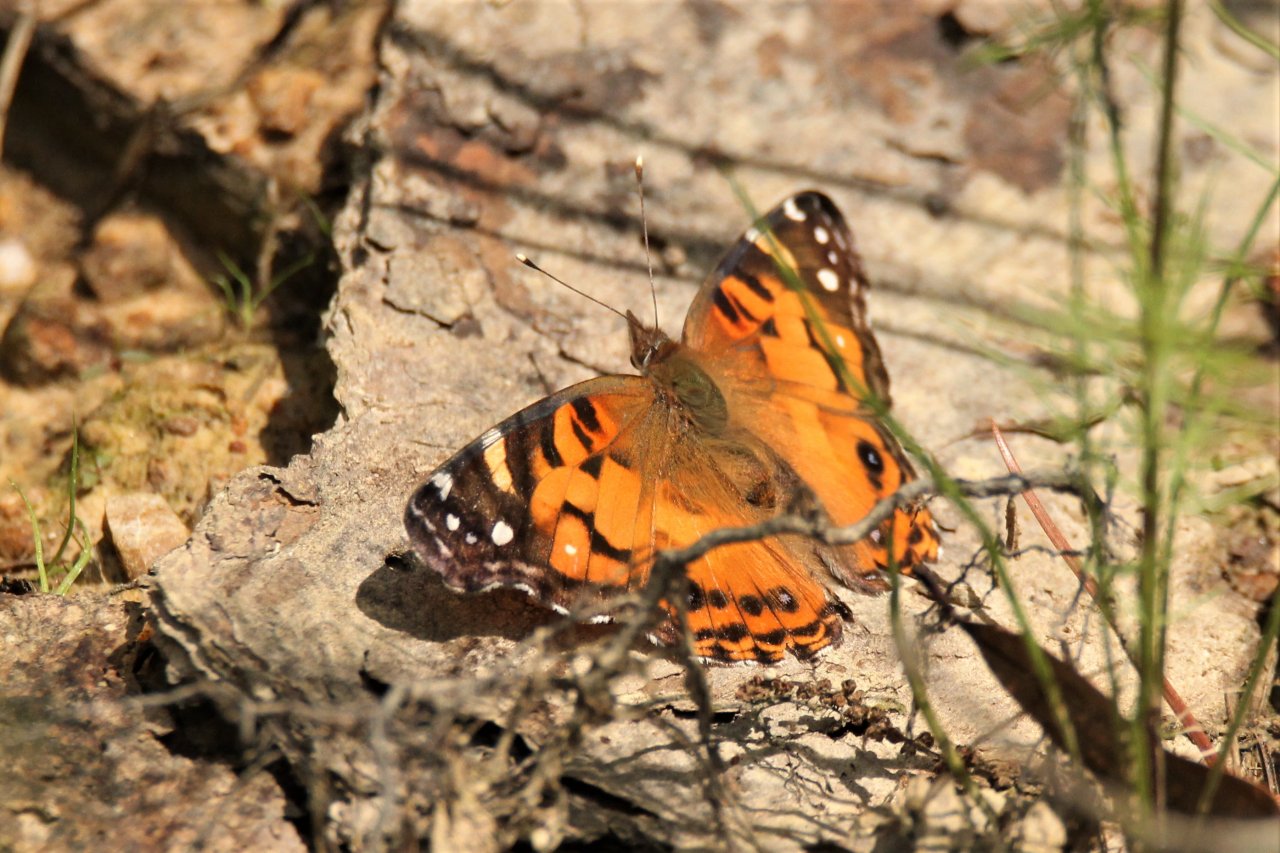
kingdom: Animalia
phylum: Arthropoda
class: Insecta
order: Lepidoptera
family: Nymphalidae
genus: Vanessa
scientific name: Vanessa virginiensis
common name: American Lady
